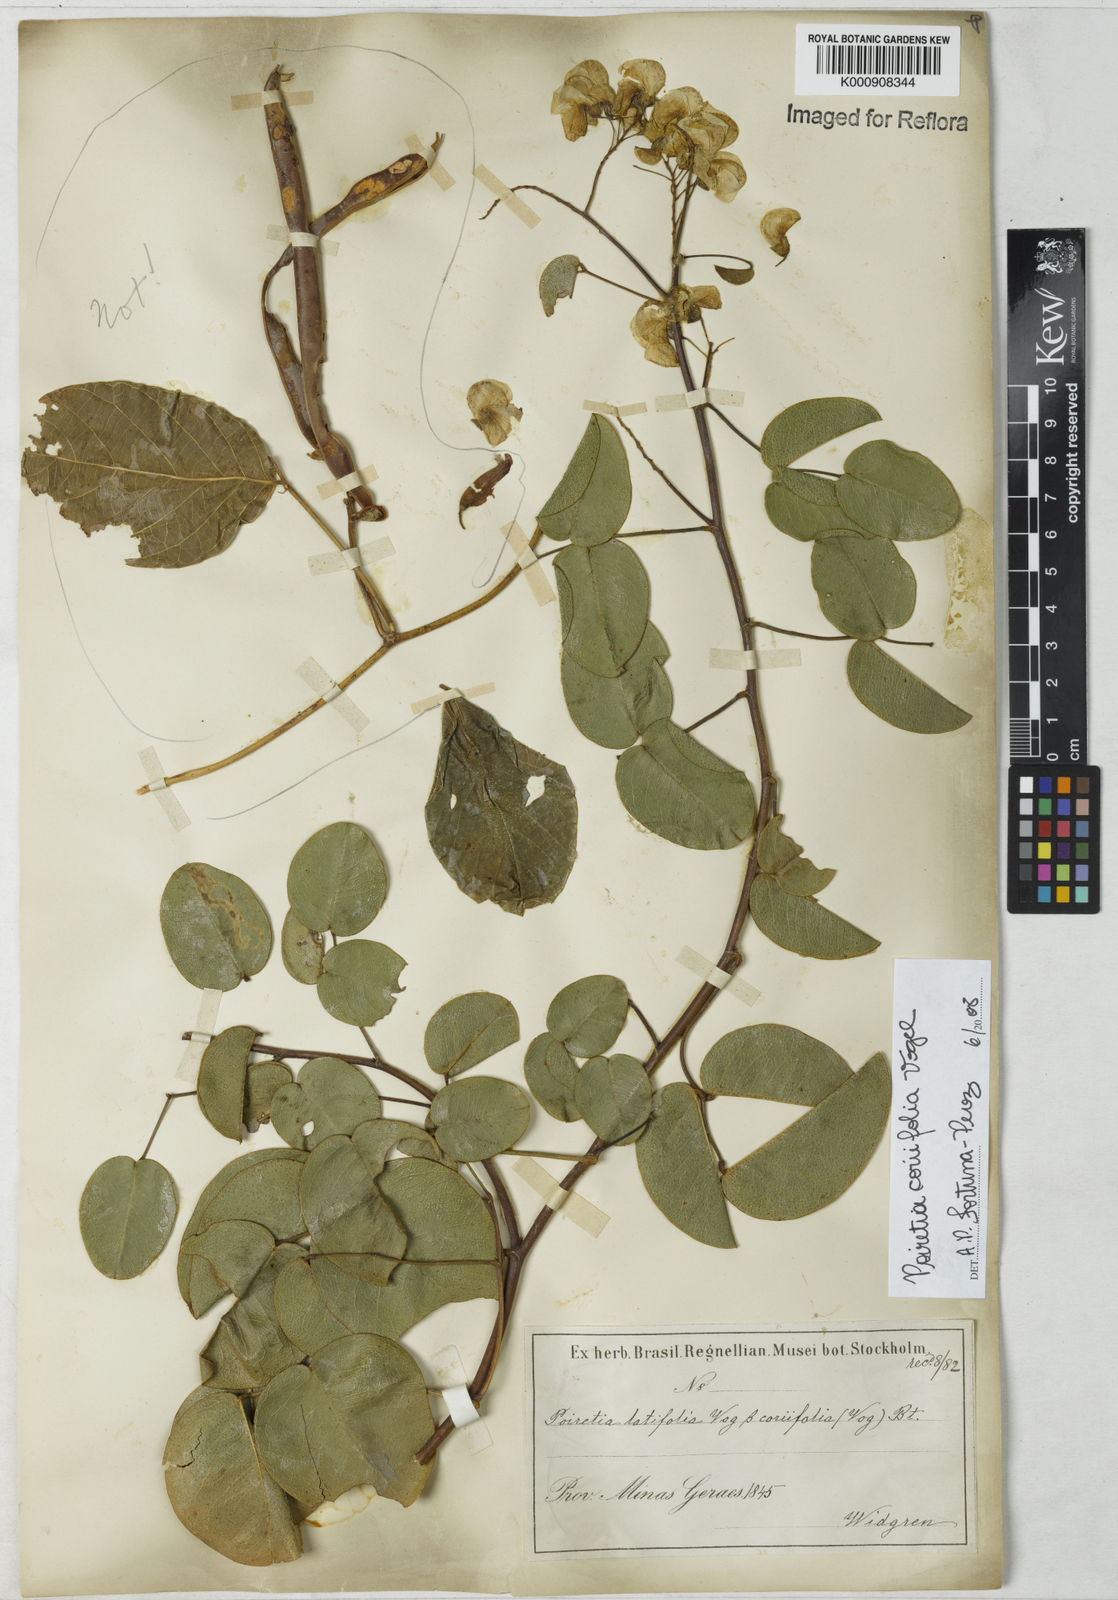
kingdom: Plantae
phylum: Tracheophyta
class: Magnoliopsida
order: Fabales
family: Fabaceae
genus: Poiretia
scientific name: Poiretia coriifolia
